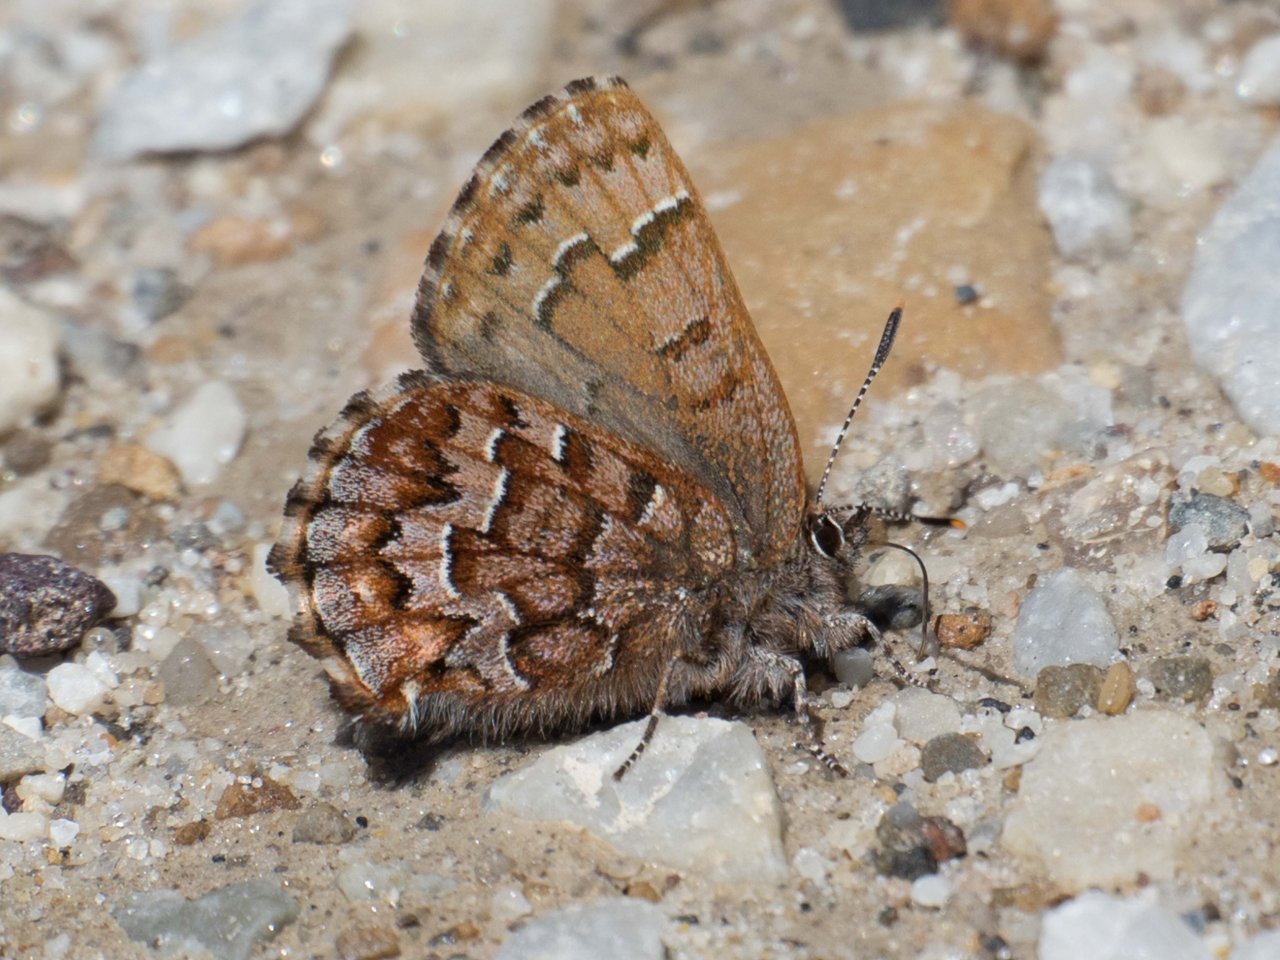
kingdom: Animalia
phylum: Arthropoda
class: Insecta
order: Lepidoptera
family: Lycaenidae
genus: Incisalia
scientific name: Incisalia niphon
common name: Eastern Pine Elfin
